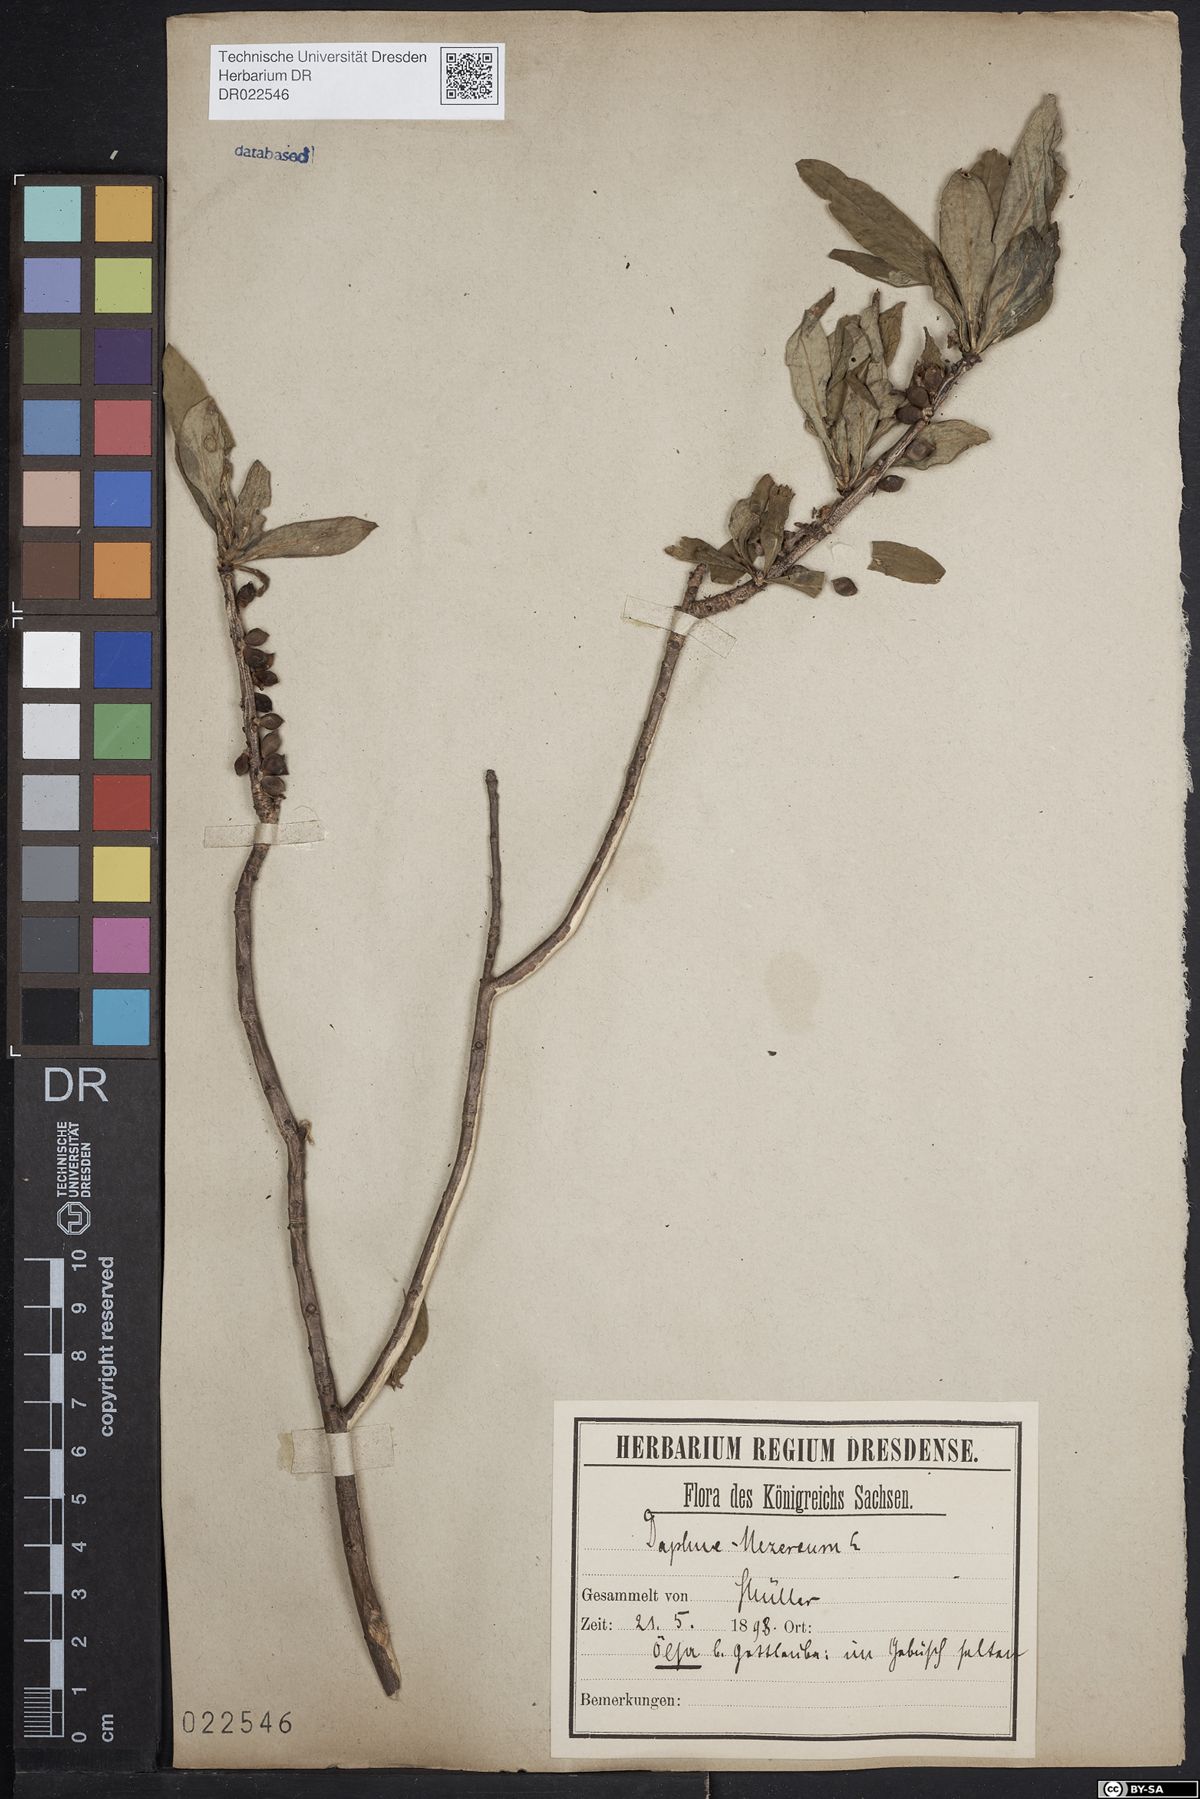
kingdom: Plantae
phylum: Tracheophyta
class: Magnoliopsida
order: Malvales
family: Thymelaeaceae
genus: Daphne
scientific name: Daphne mezereum
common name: Mezereon
